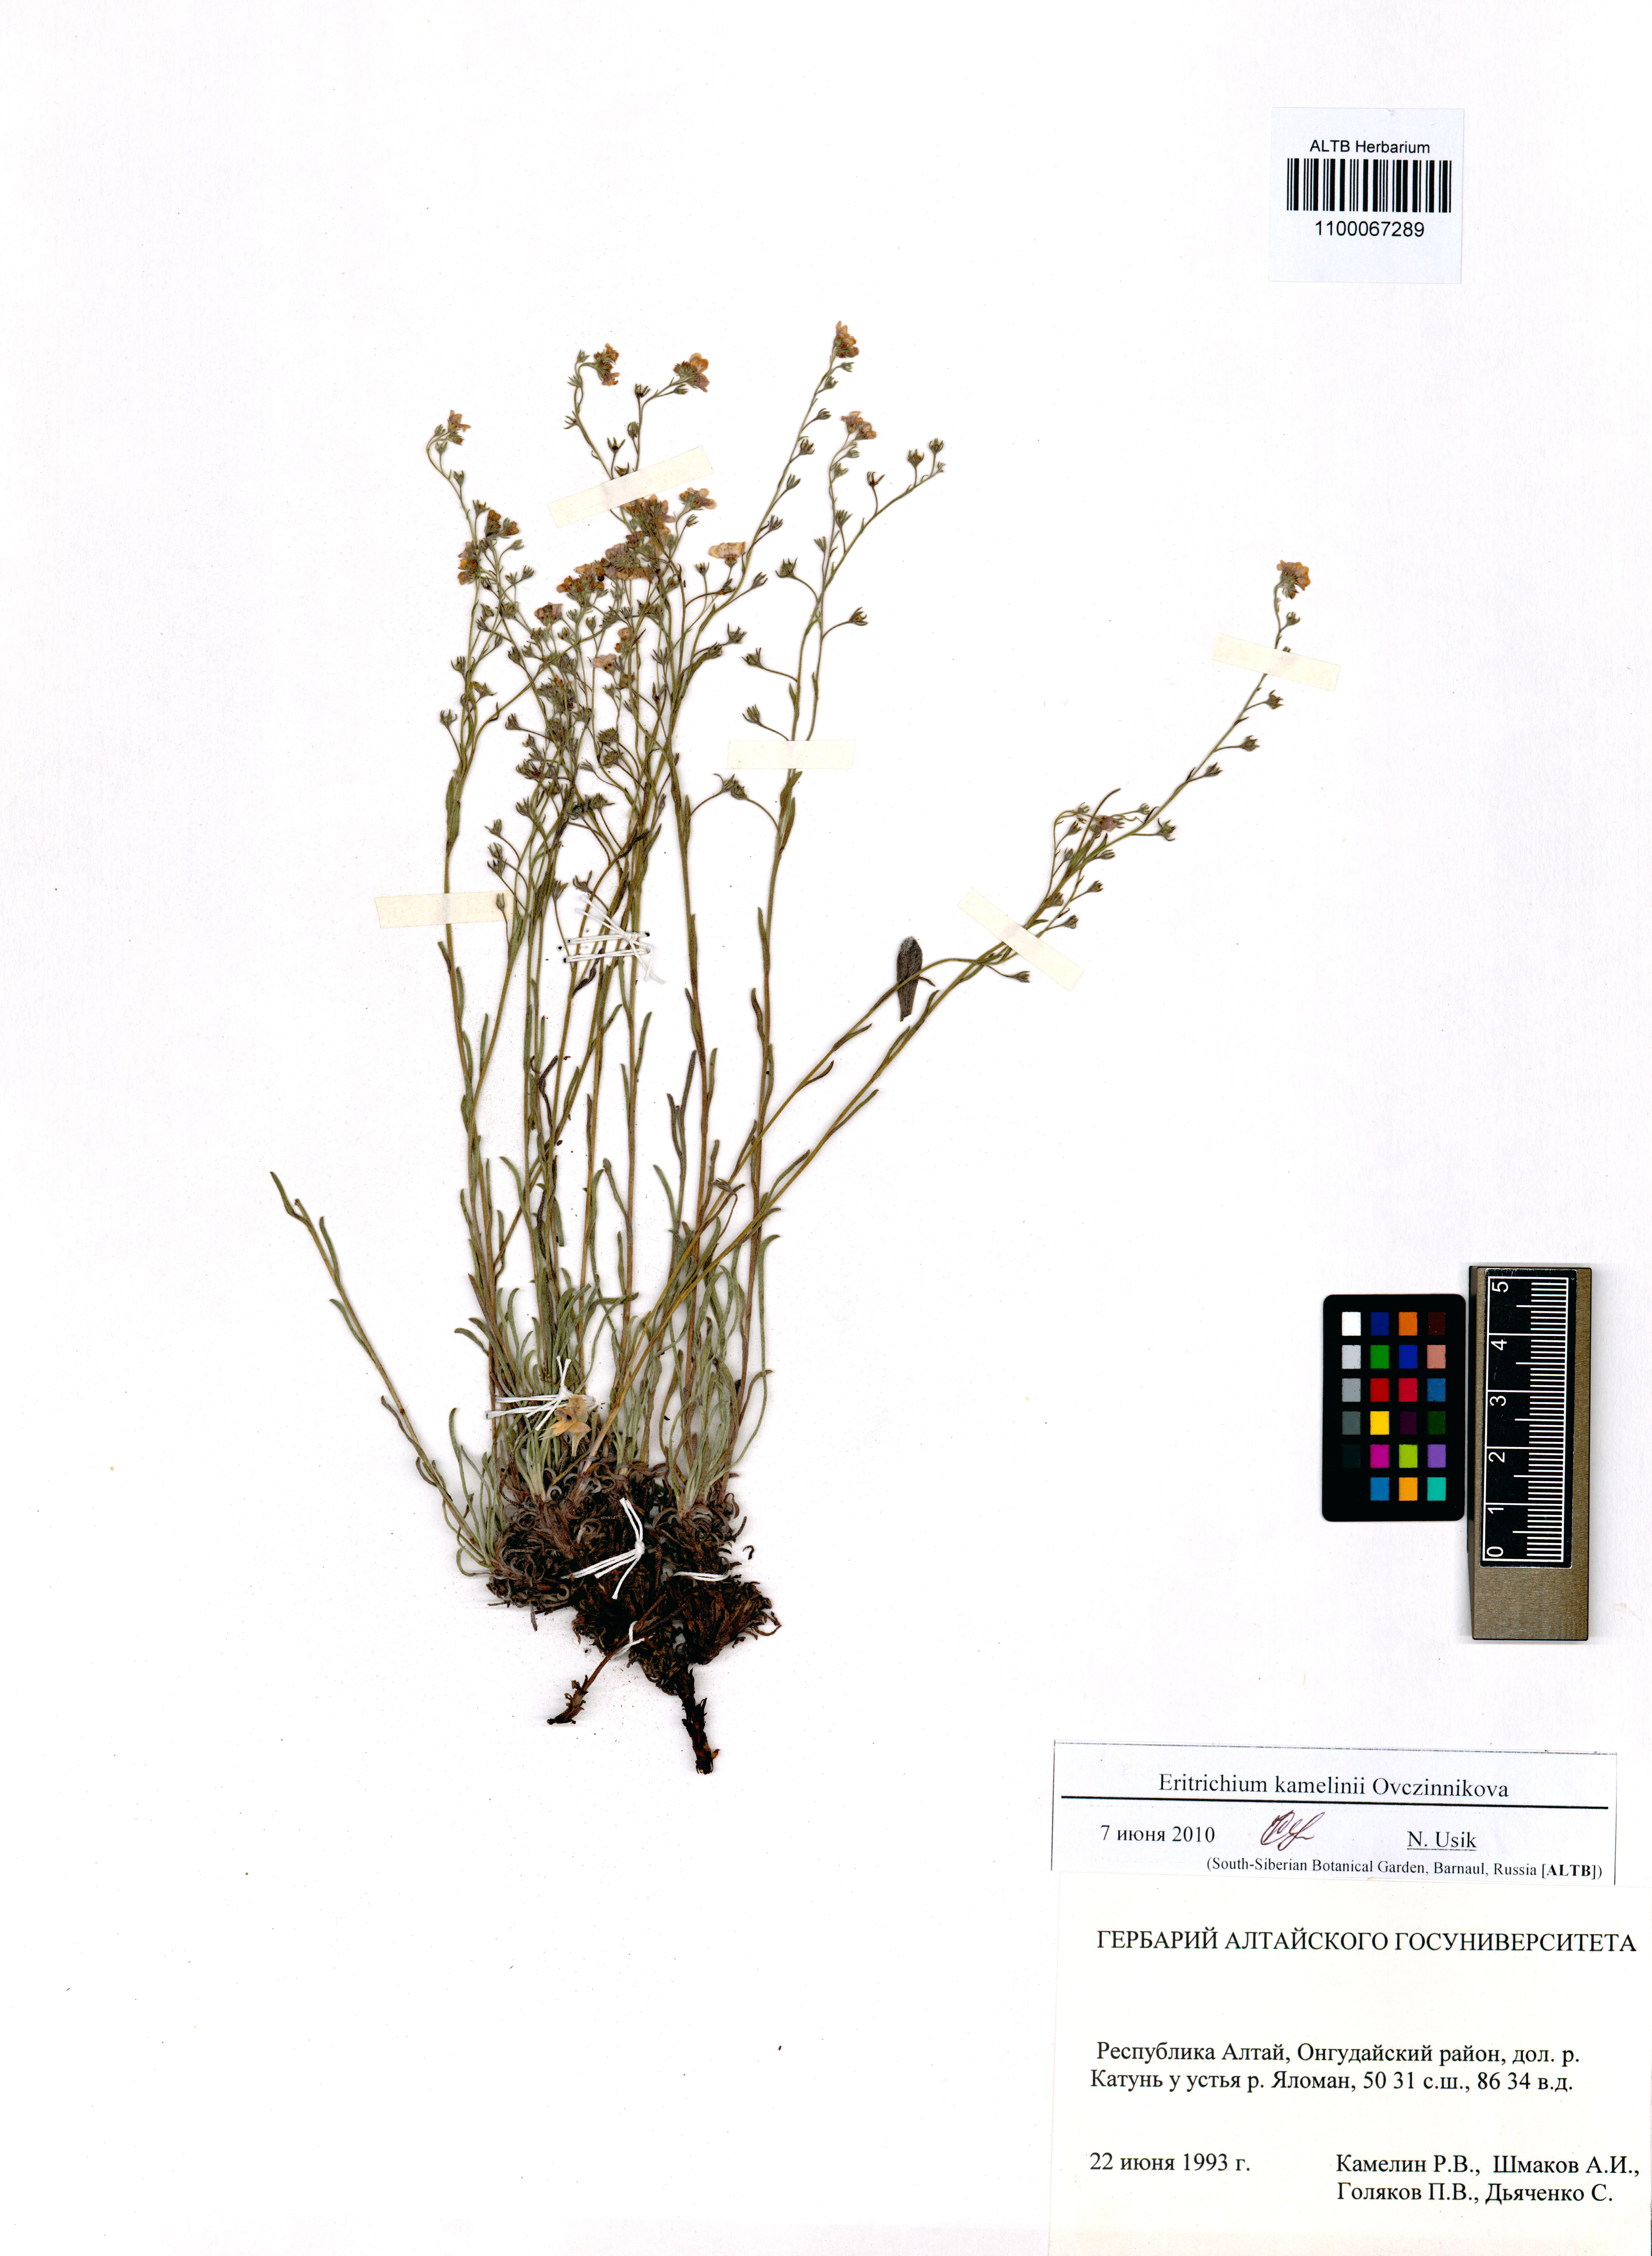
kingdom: Plantae
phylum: Tracheophyta
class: Magnoliopsida
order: Boraginales
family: Boraginaceae
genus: Eritrichium
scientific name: Eritrichium kamelinii
